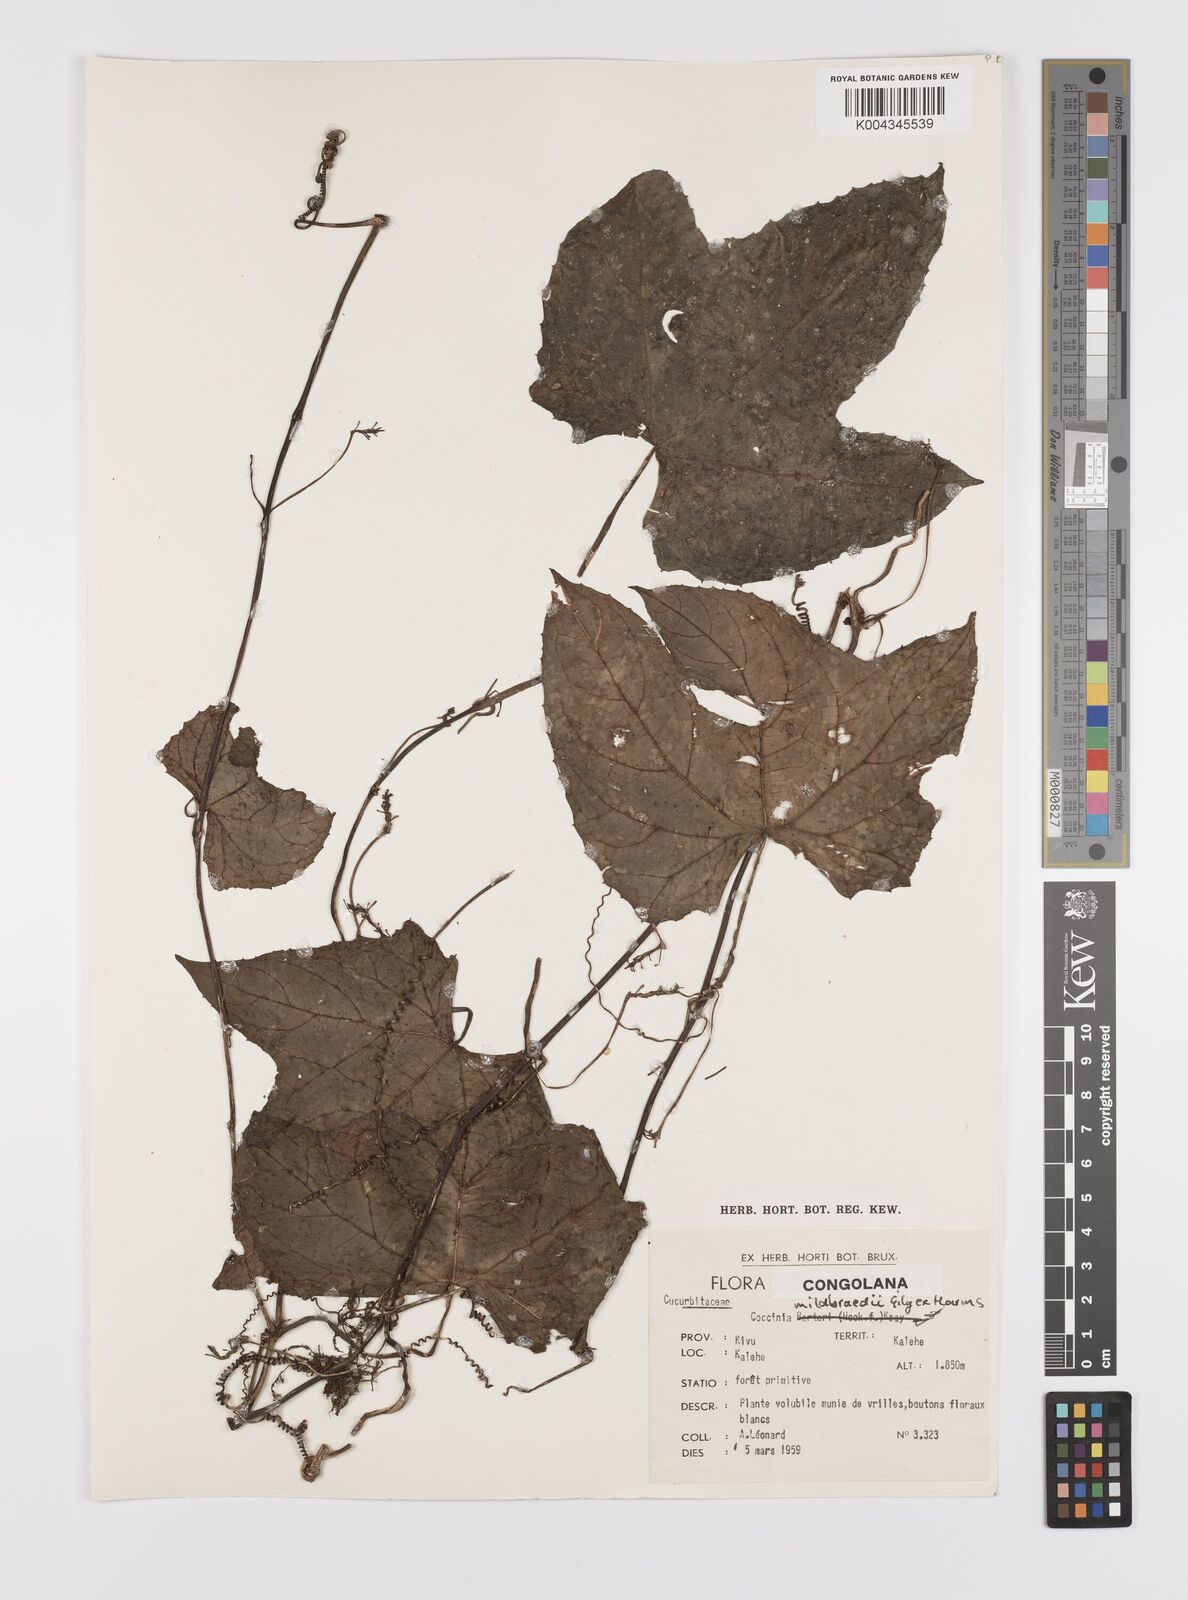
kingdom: Plantae
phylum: Tracheophyta
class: Magnoliopsida
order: Cucurbitales
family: Cucurbitaceae
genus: Coccinia
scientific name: Coccinia mildbraedii
